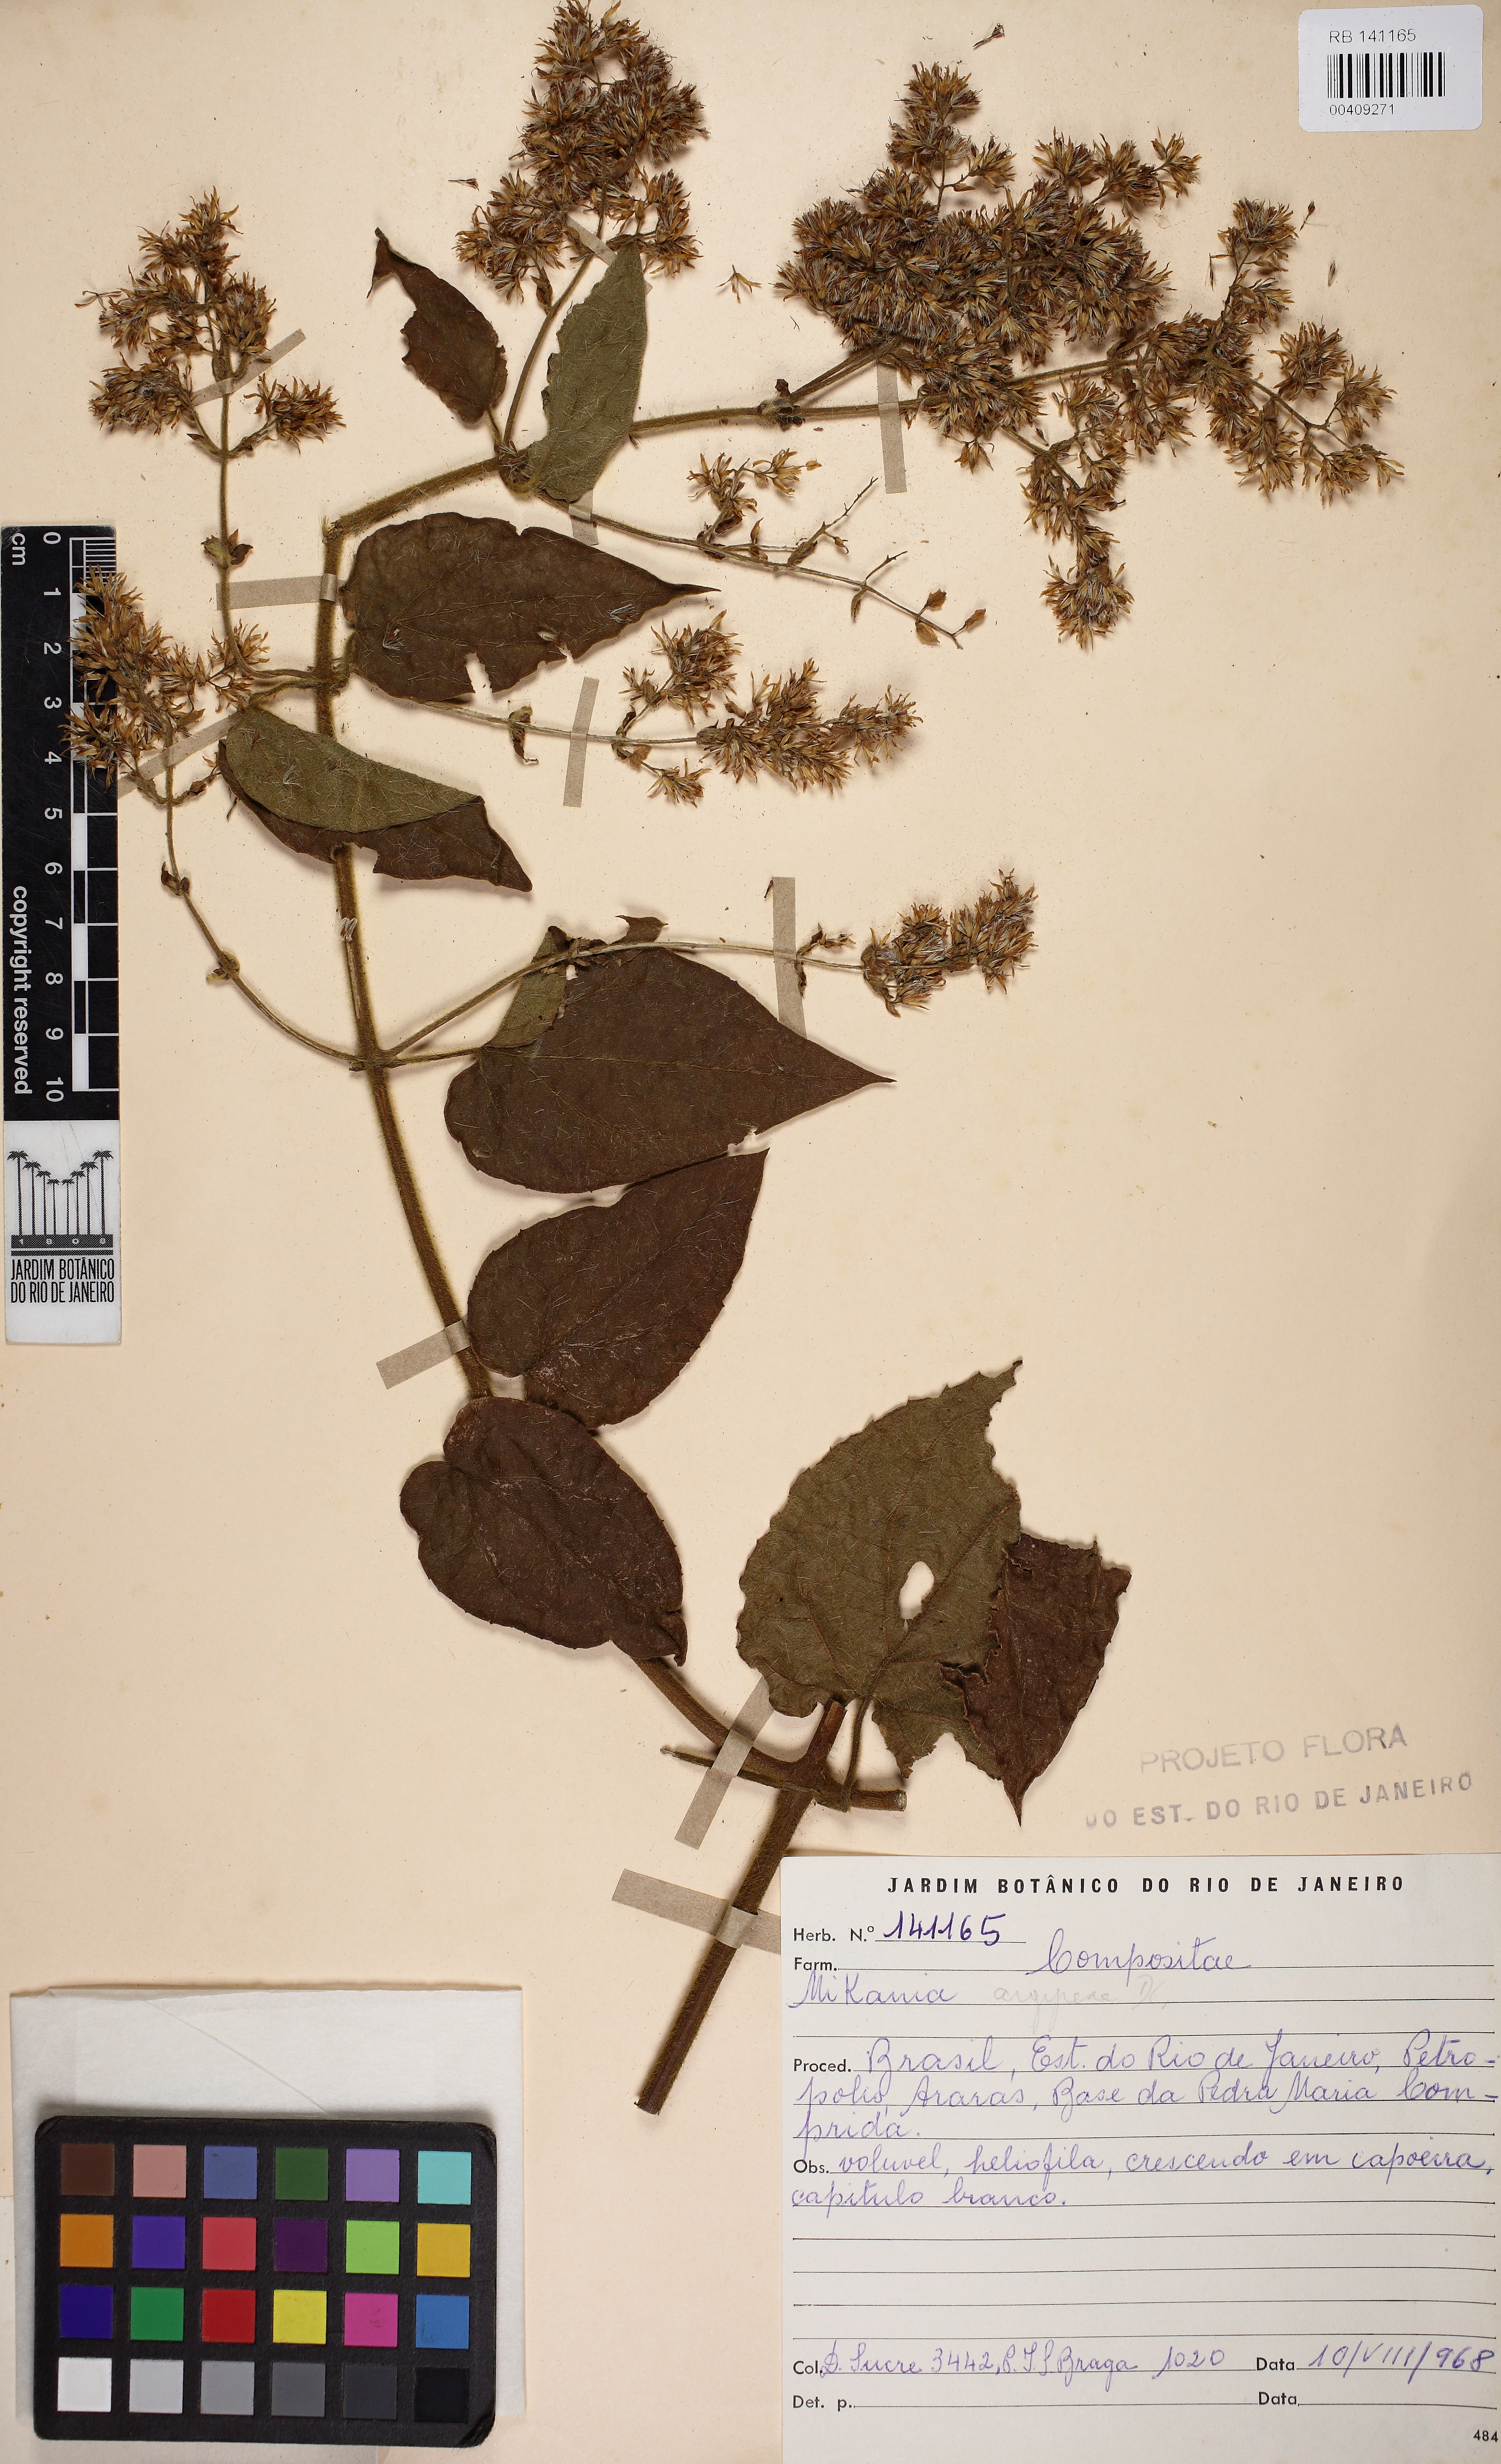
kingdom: Plantae
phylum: Tracheophyta
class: Magnoliopsida
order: Asterales
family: Asteraceae
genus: Mikania
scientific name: Mikania argyreiae
